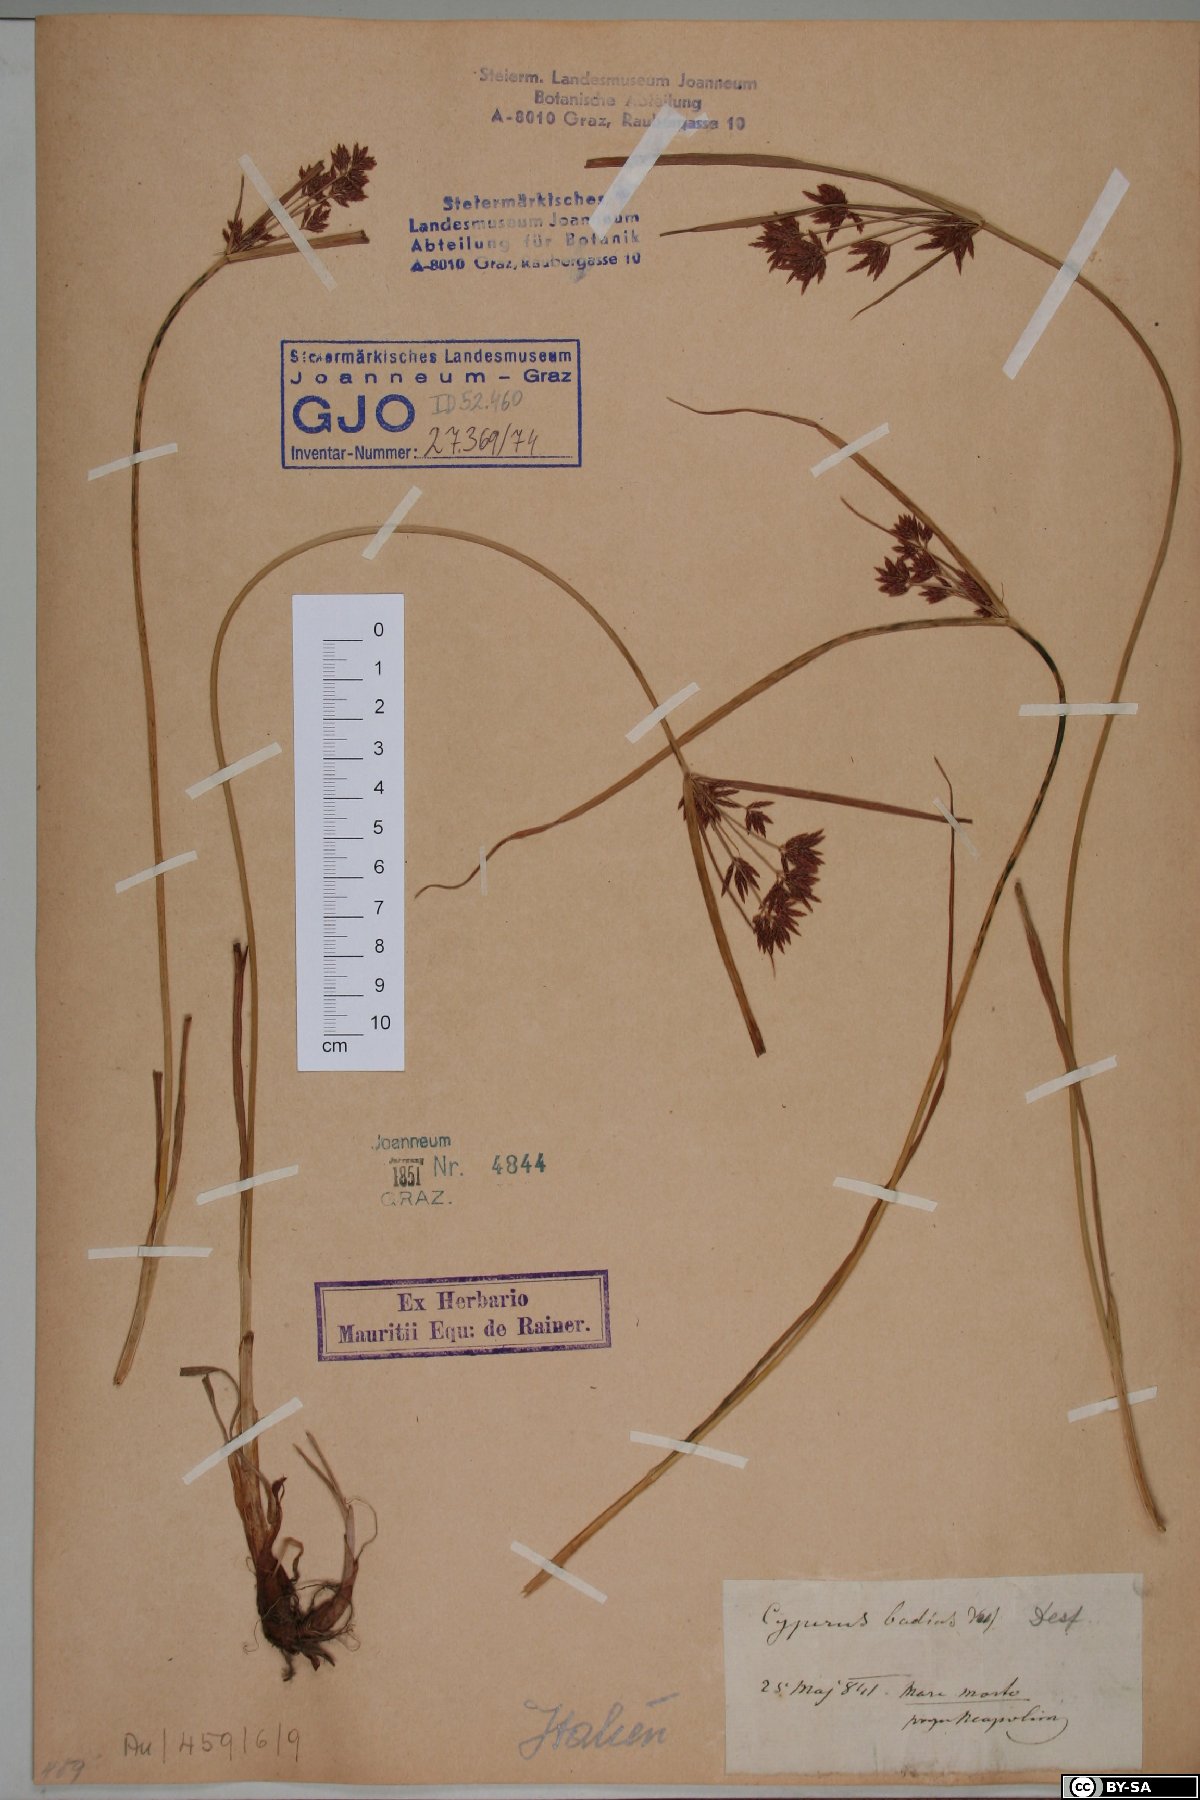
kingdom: Plantae
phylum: Tracheophyta
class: Liliopsida
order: Poales
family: Cyperaceae
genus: Cyperus
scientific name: Cyperus longus
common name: Galingale
